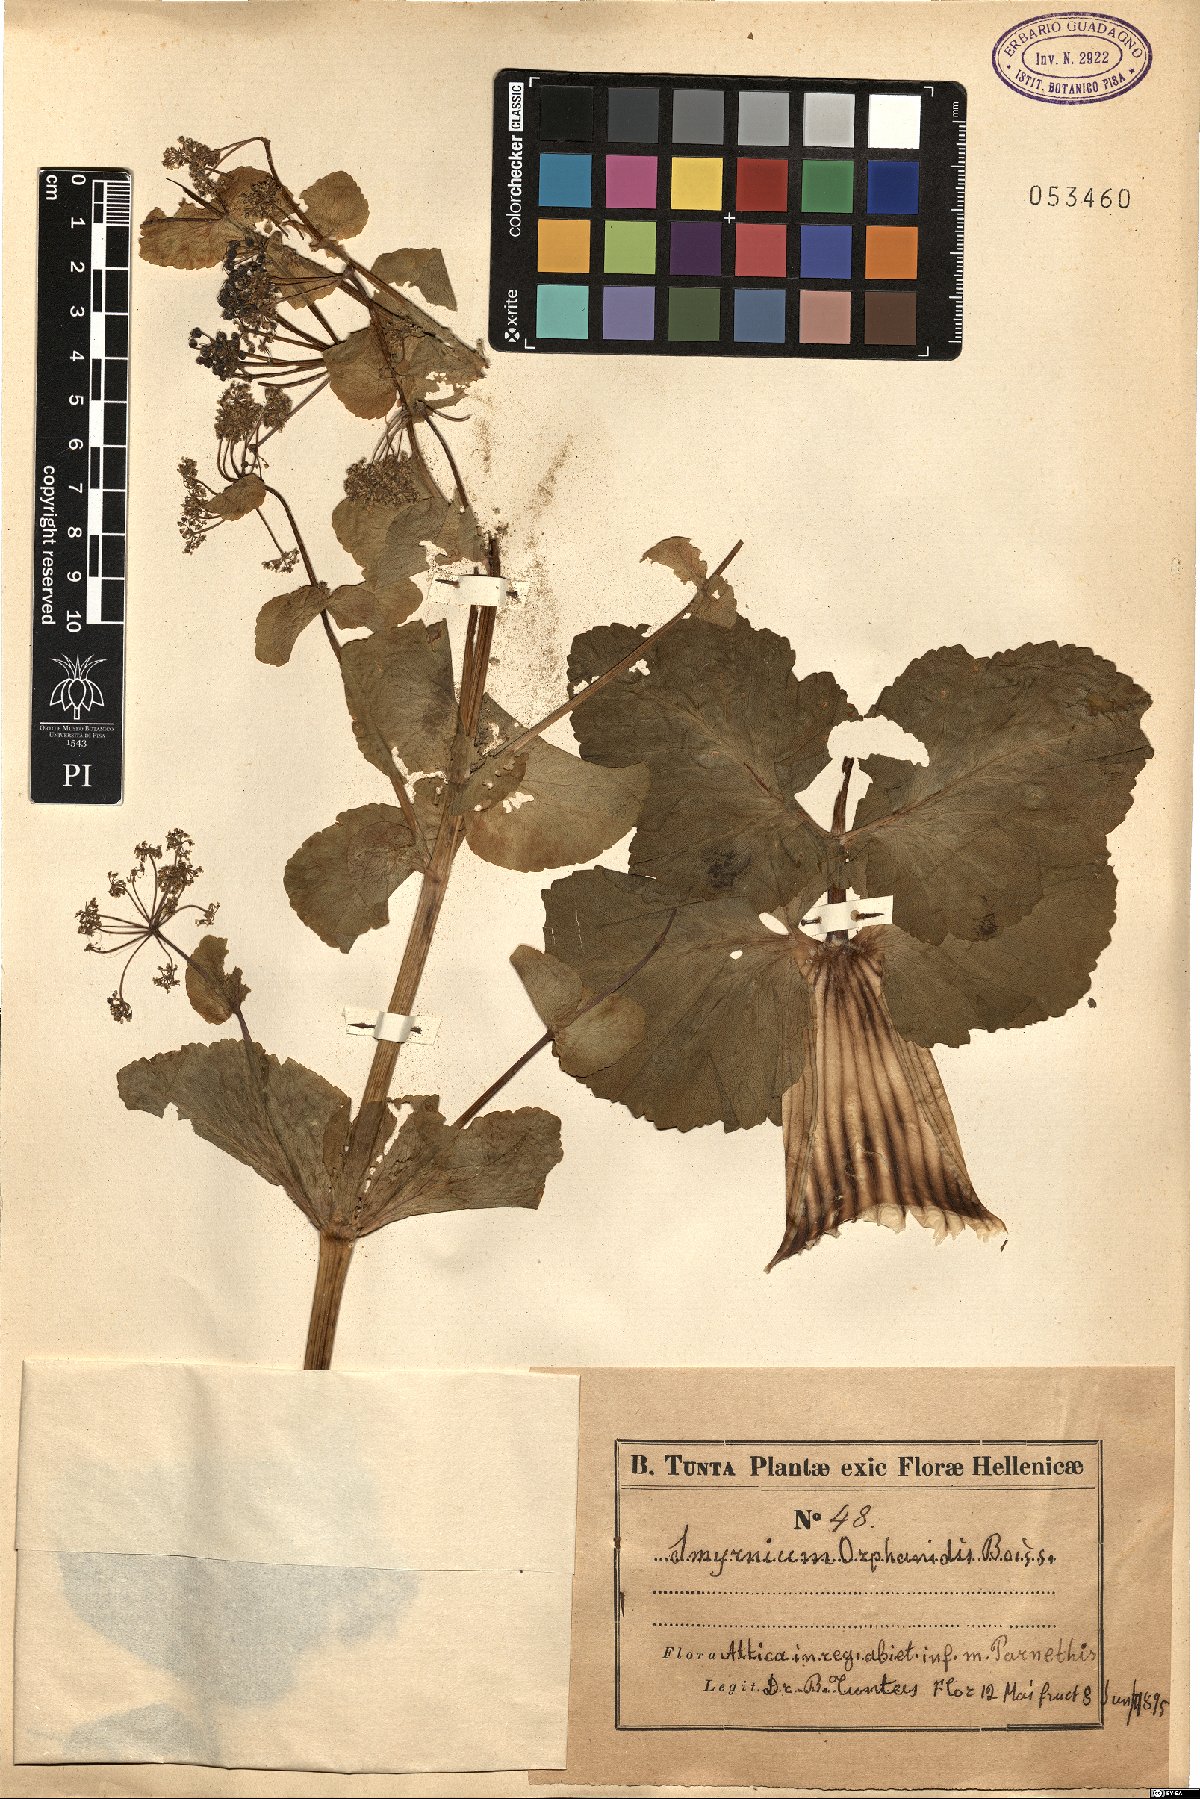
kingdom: Plantae
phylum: Tracheophyta
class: Magnoliopsida
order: Apiales
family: Apiaceae
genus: Smyrnium
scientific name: Smyrnium creticum
